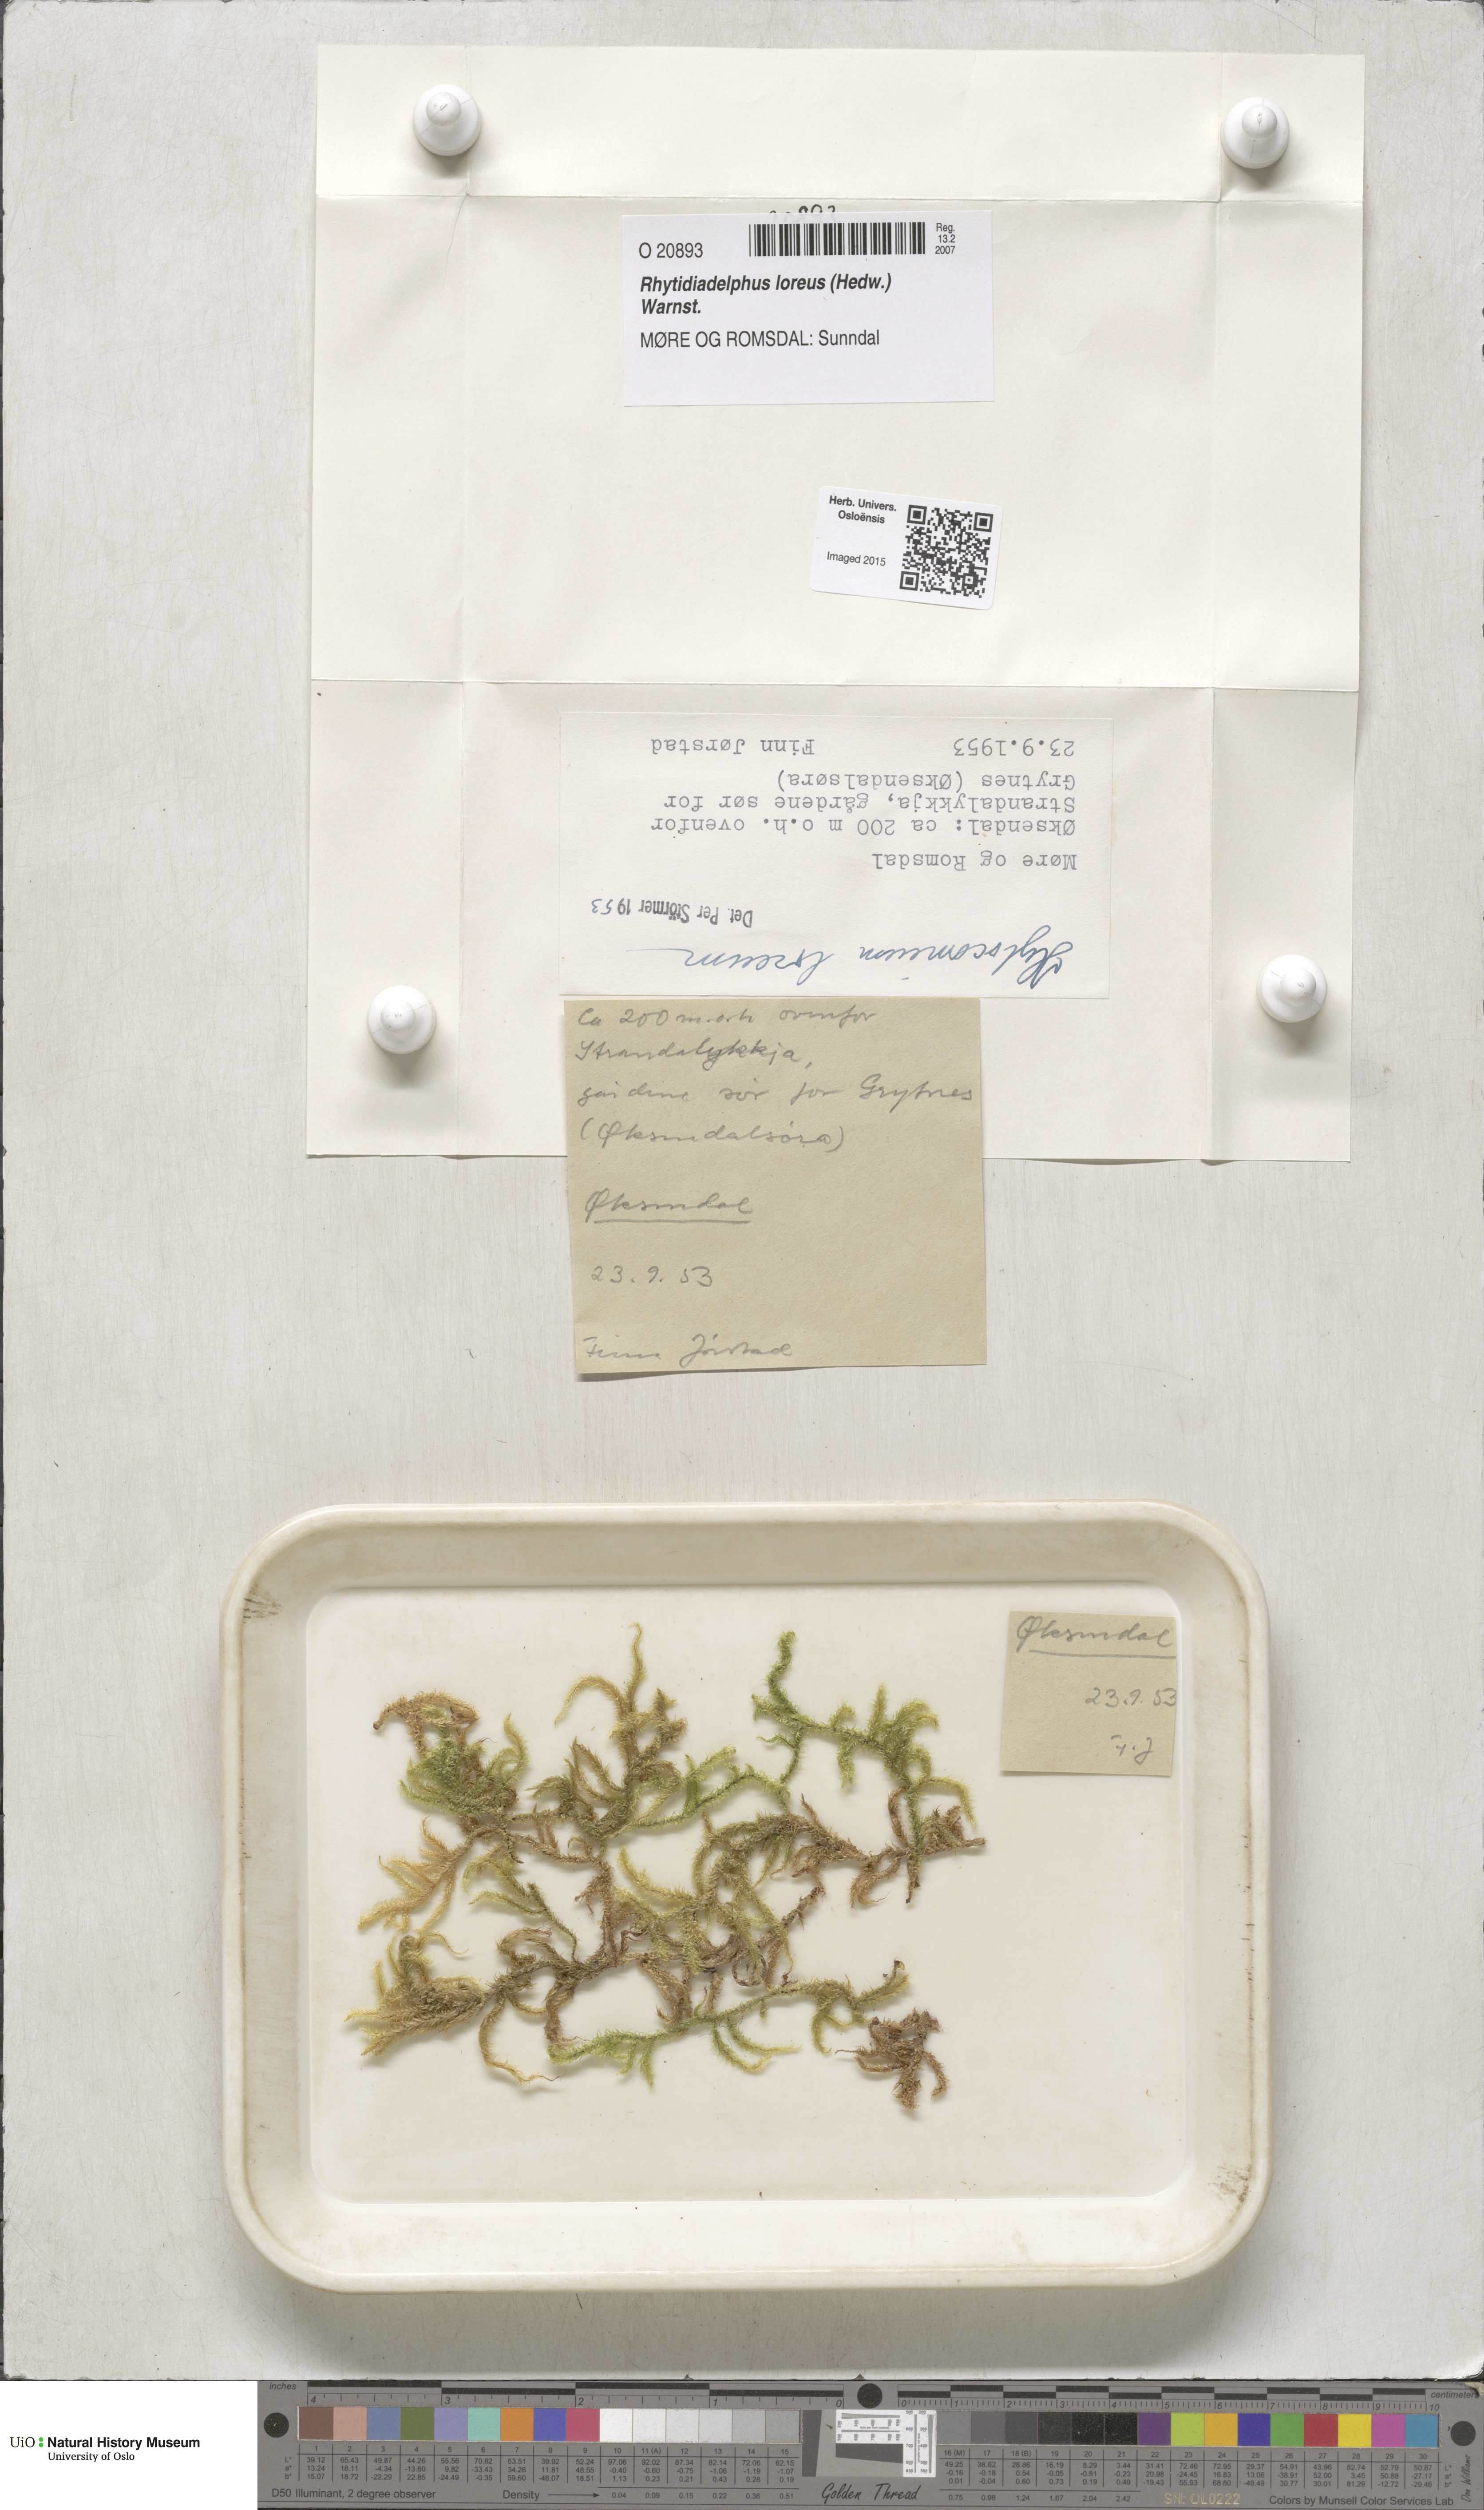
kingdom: Plantae
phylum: Bryophyta
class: Bryopsida
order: Hypnales
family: Hylocomiaceae
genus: Rhytidiadelphus
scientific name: Rhytidiadelphus loreus
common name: Lanky moss
